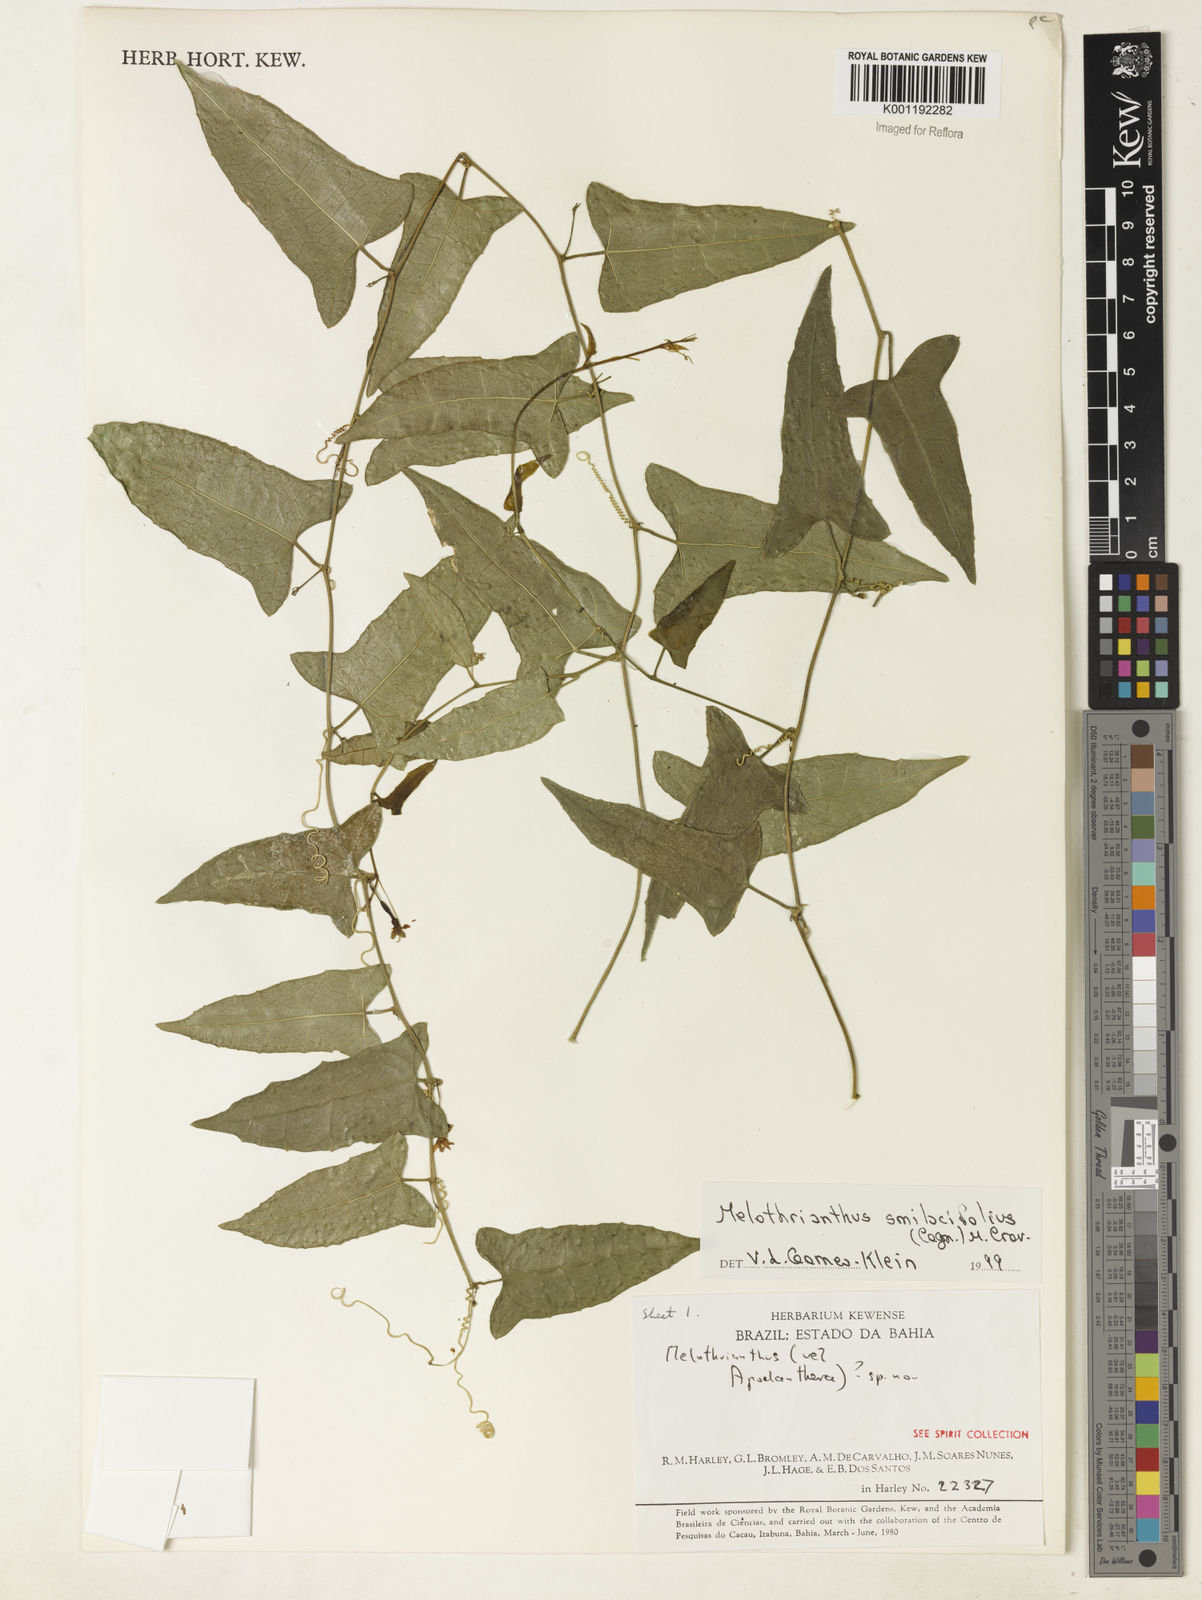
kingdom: Plantae
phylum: Tracheophyta
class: Magnoliopsida
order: Cucurbitales
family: Cucurbitaceae
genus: Apodanthera
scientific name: Apodanthera smilacifolia
